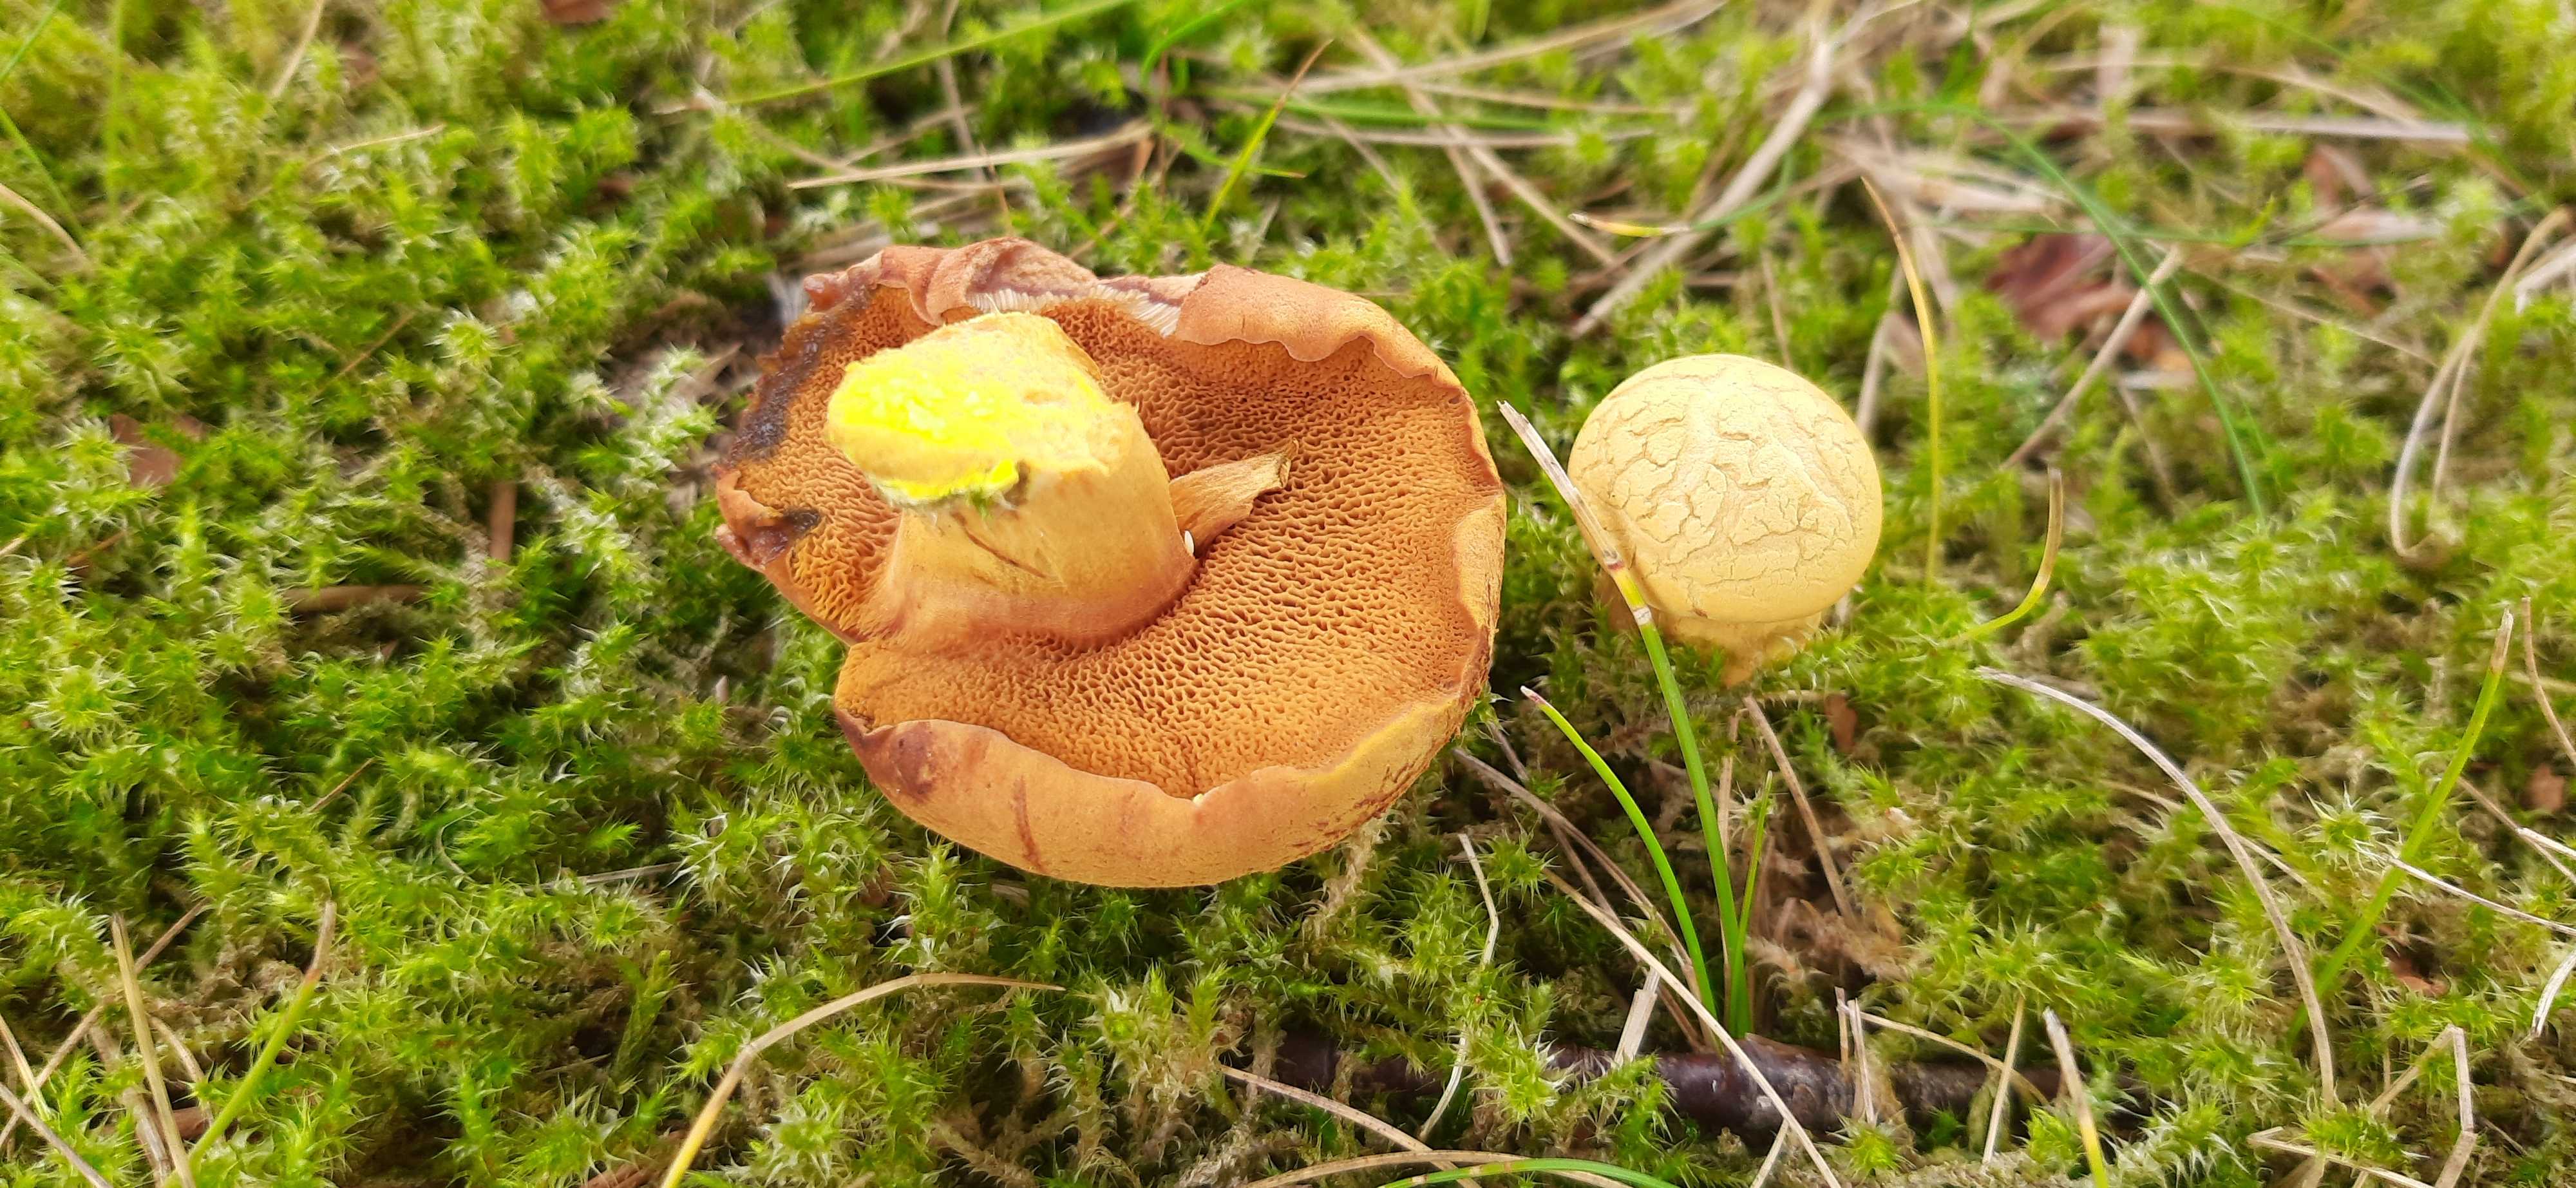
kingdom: Fungi
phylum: Basidiomycota
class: Agaricomycetes
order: Boletales
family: Boletaceae
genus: Chalciporus
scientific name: Chalciporus piperatus
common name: peberrørhat
